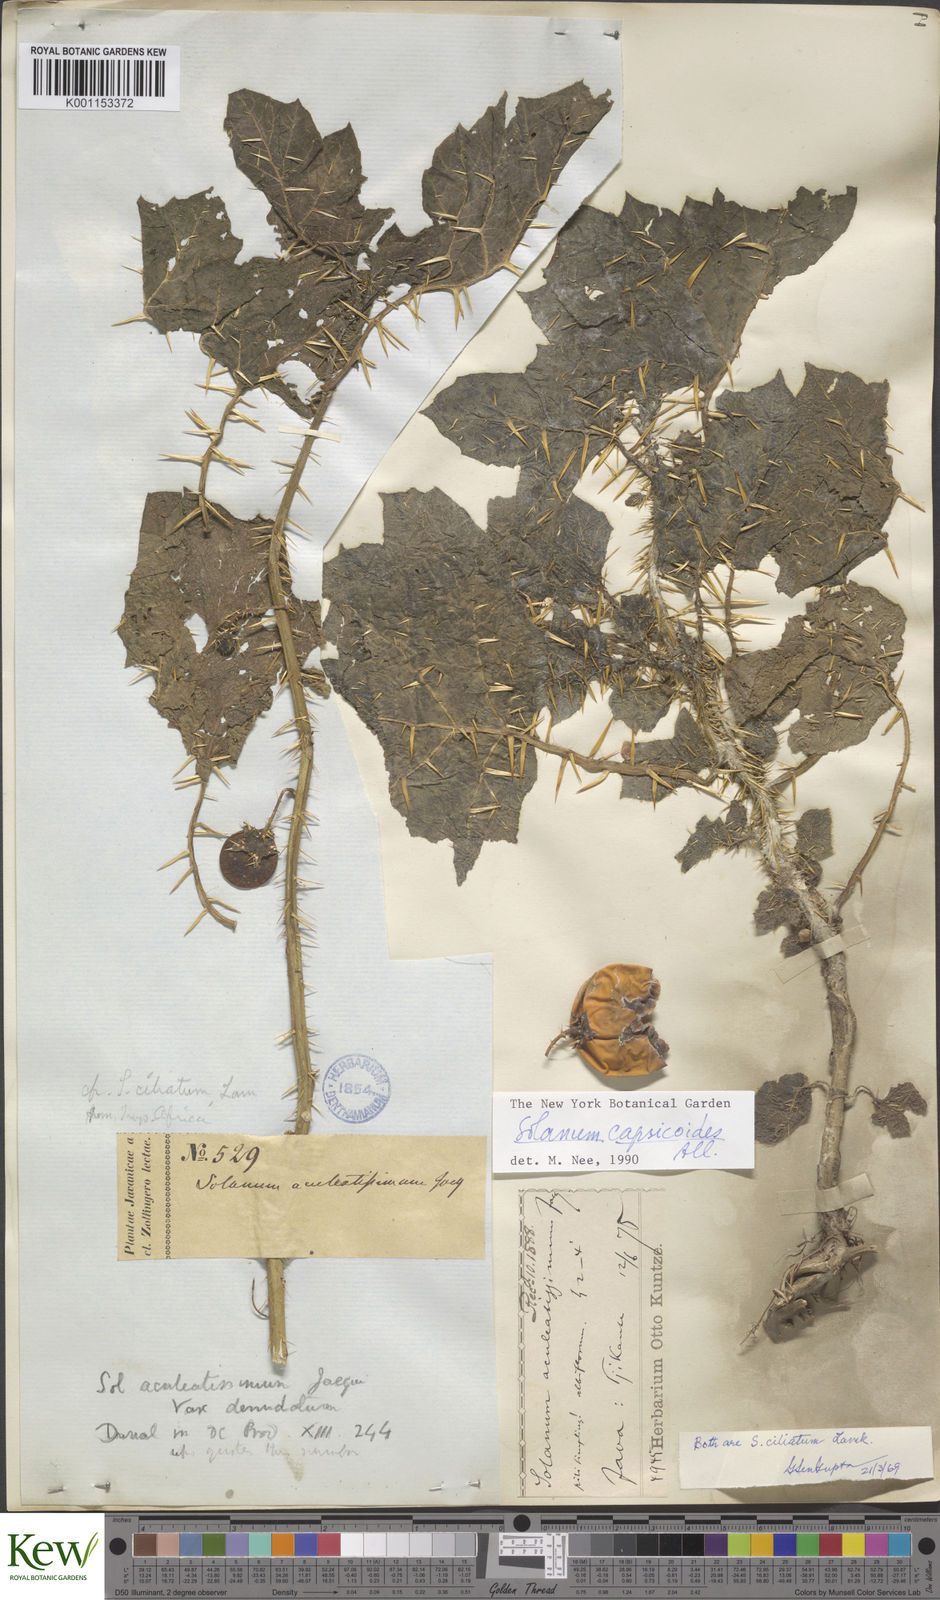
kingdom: Plantae
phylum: Tracheophyta
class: Magnoliopsida
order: Solanales
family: Solanaceae
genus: Solanum
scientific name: Solanum aculeatissimum
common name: Dutch eggplant
